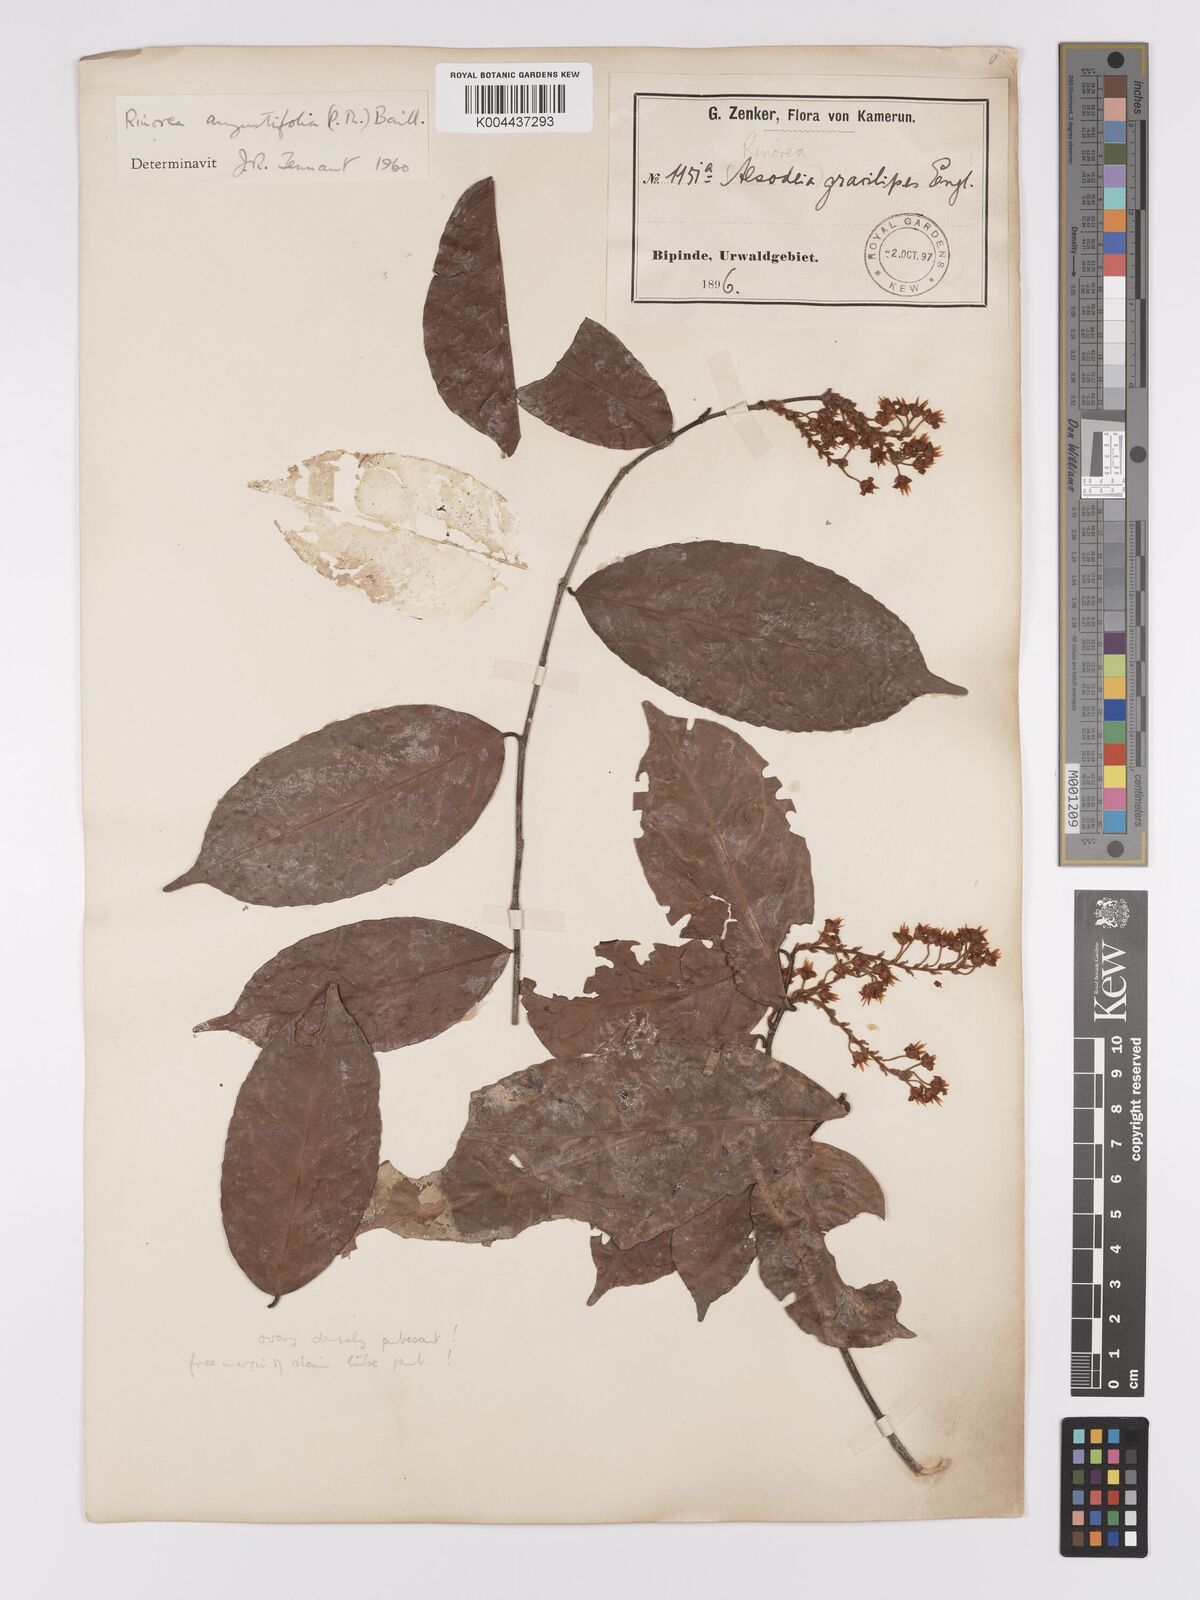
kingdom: Plantae
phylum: Tracheophyta
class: Magnoliopsida
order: Malpighiales
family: Violaceae
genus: Rinorea
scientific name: Rinorea angustifolia
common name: White violet-bush
